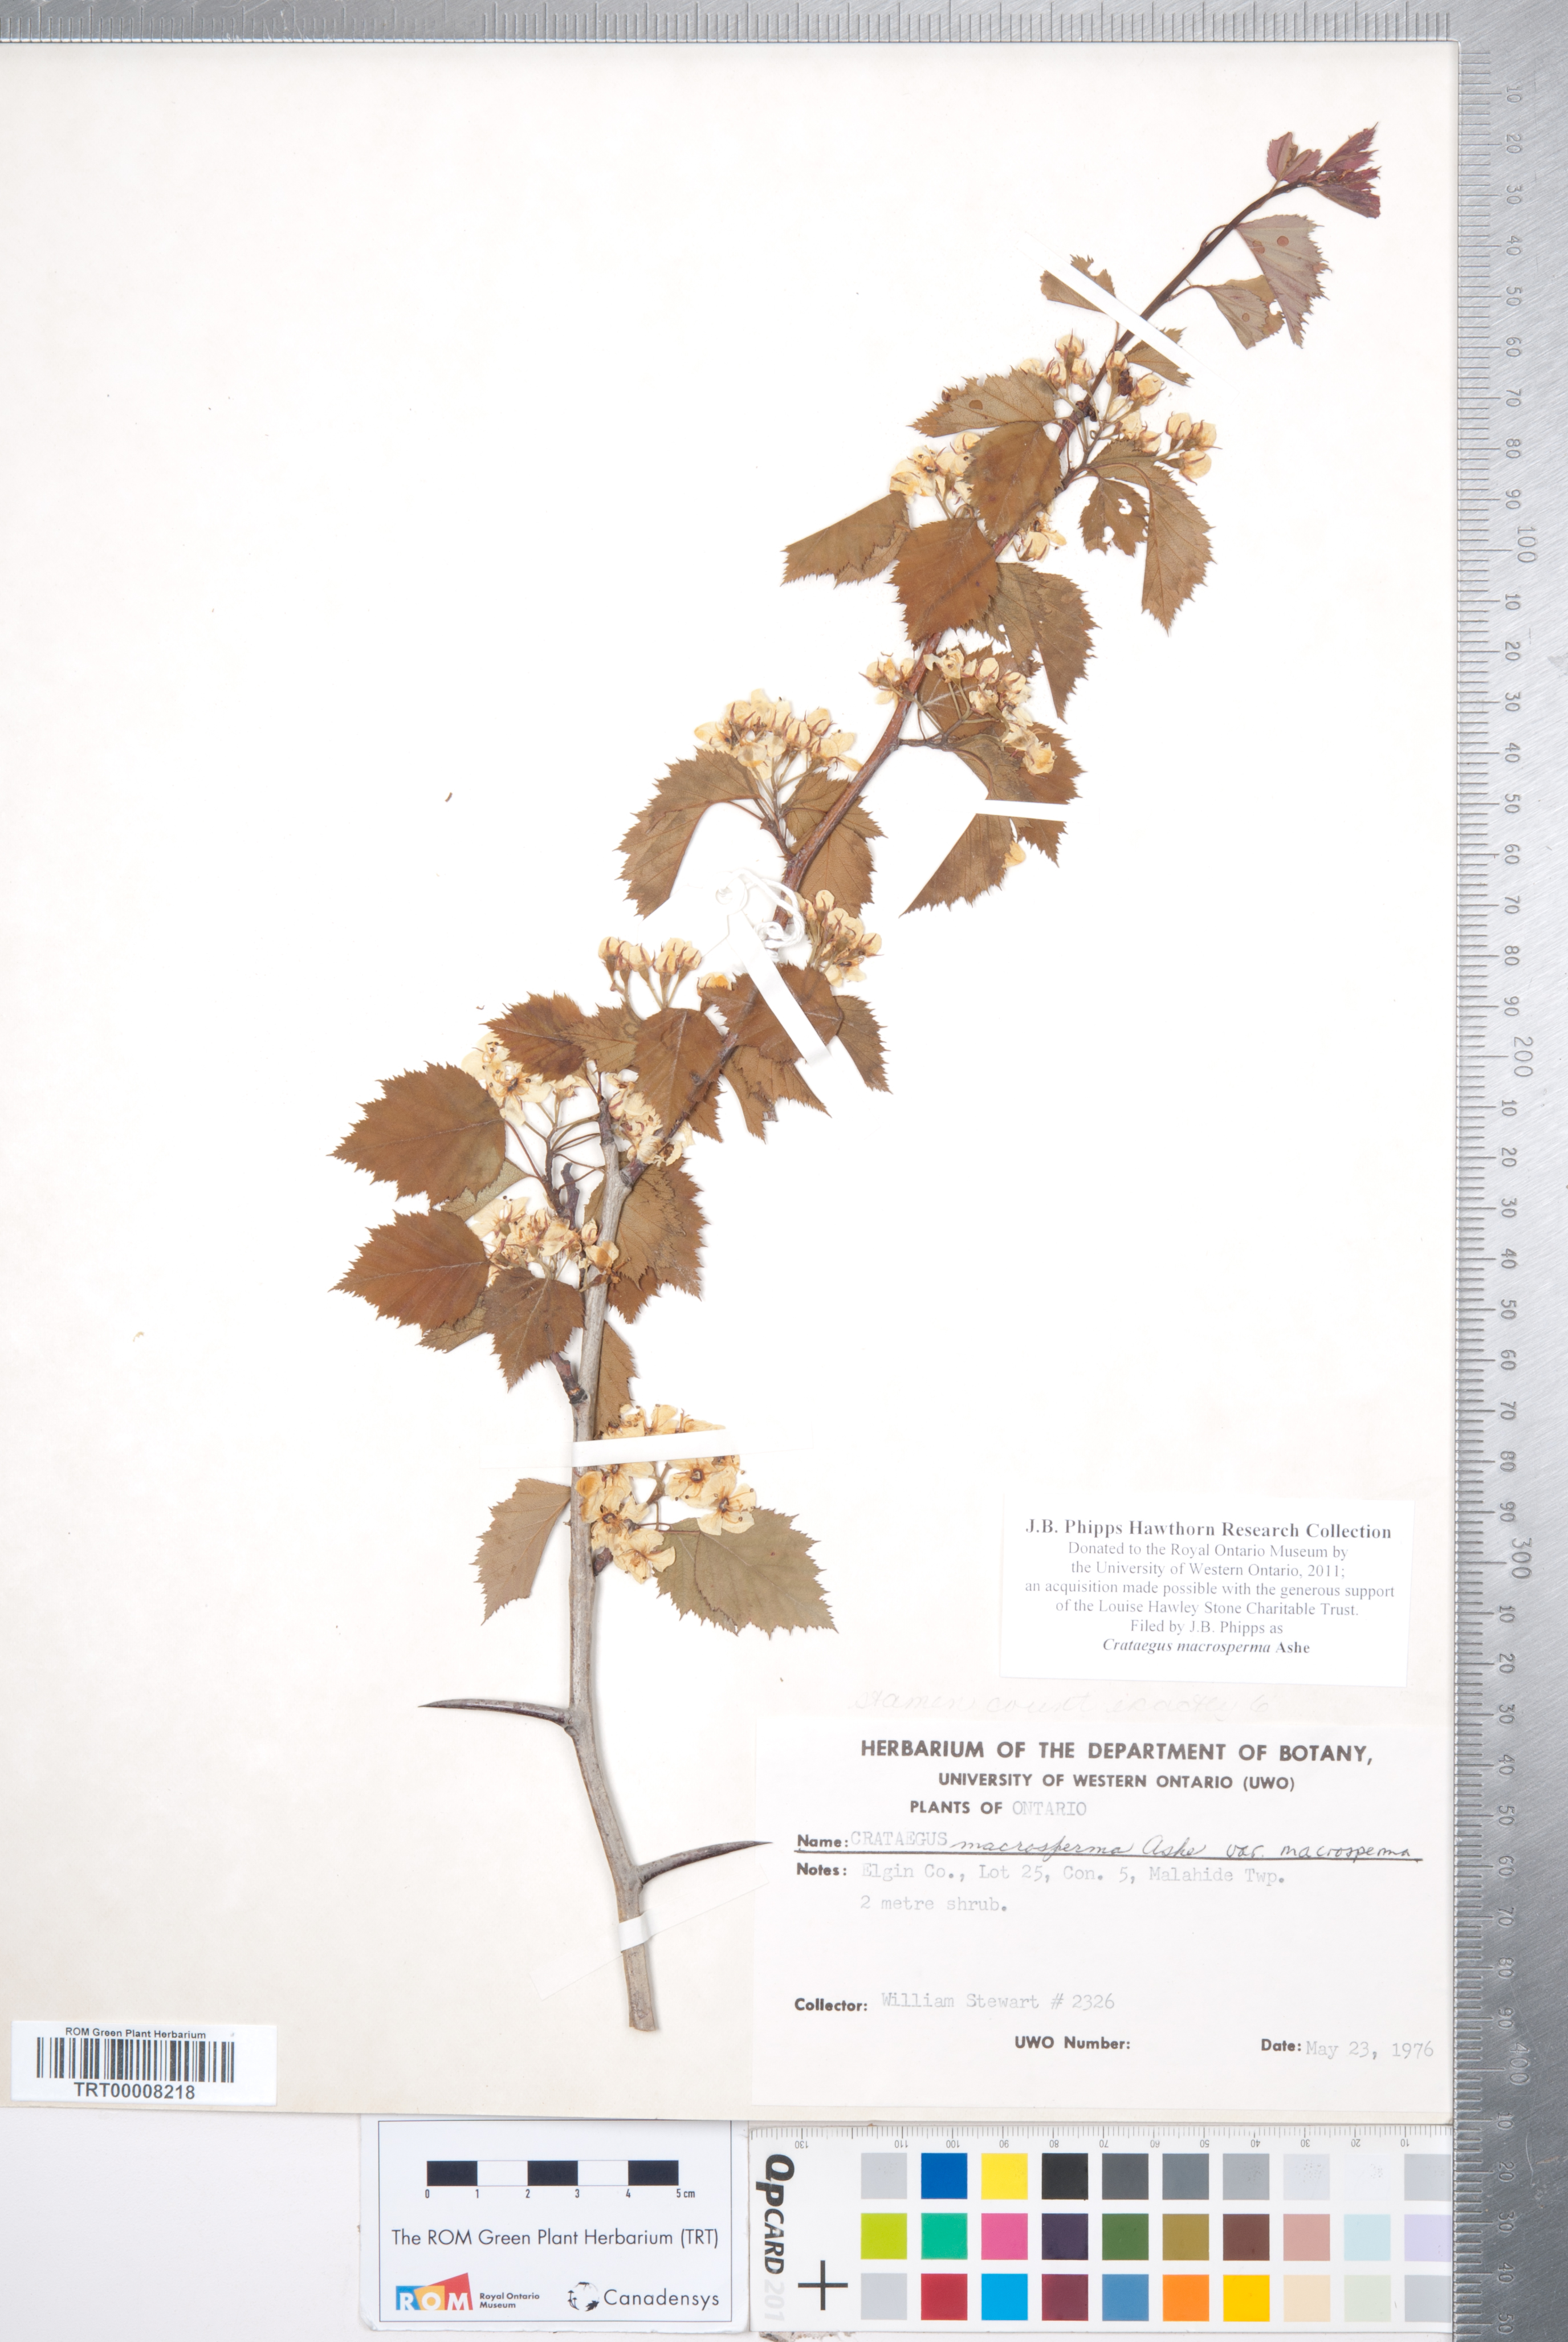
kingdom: Plantae
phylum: Tracheophyta
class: Magnoliopsida
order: Rosales
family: Rosaceae
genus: Crataegus
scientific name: Crataegus macrosperma
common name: Variable hawthorn
